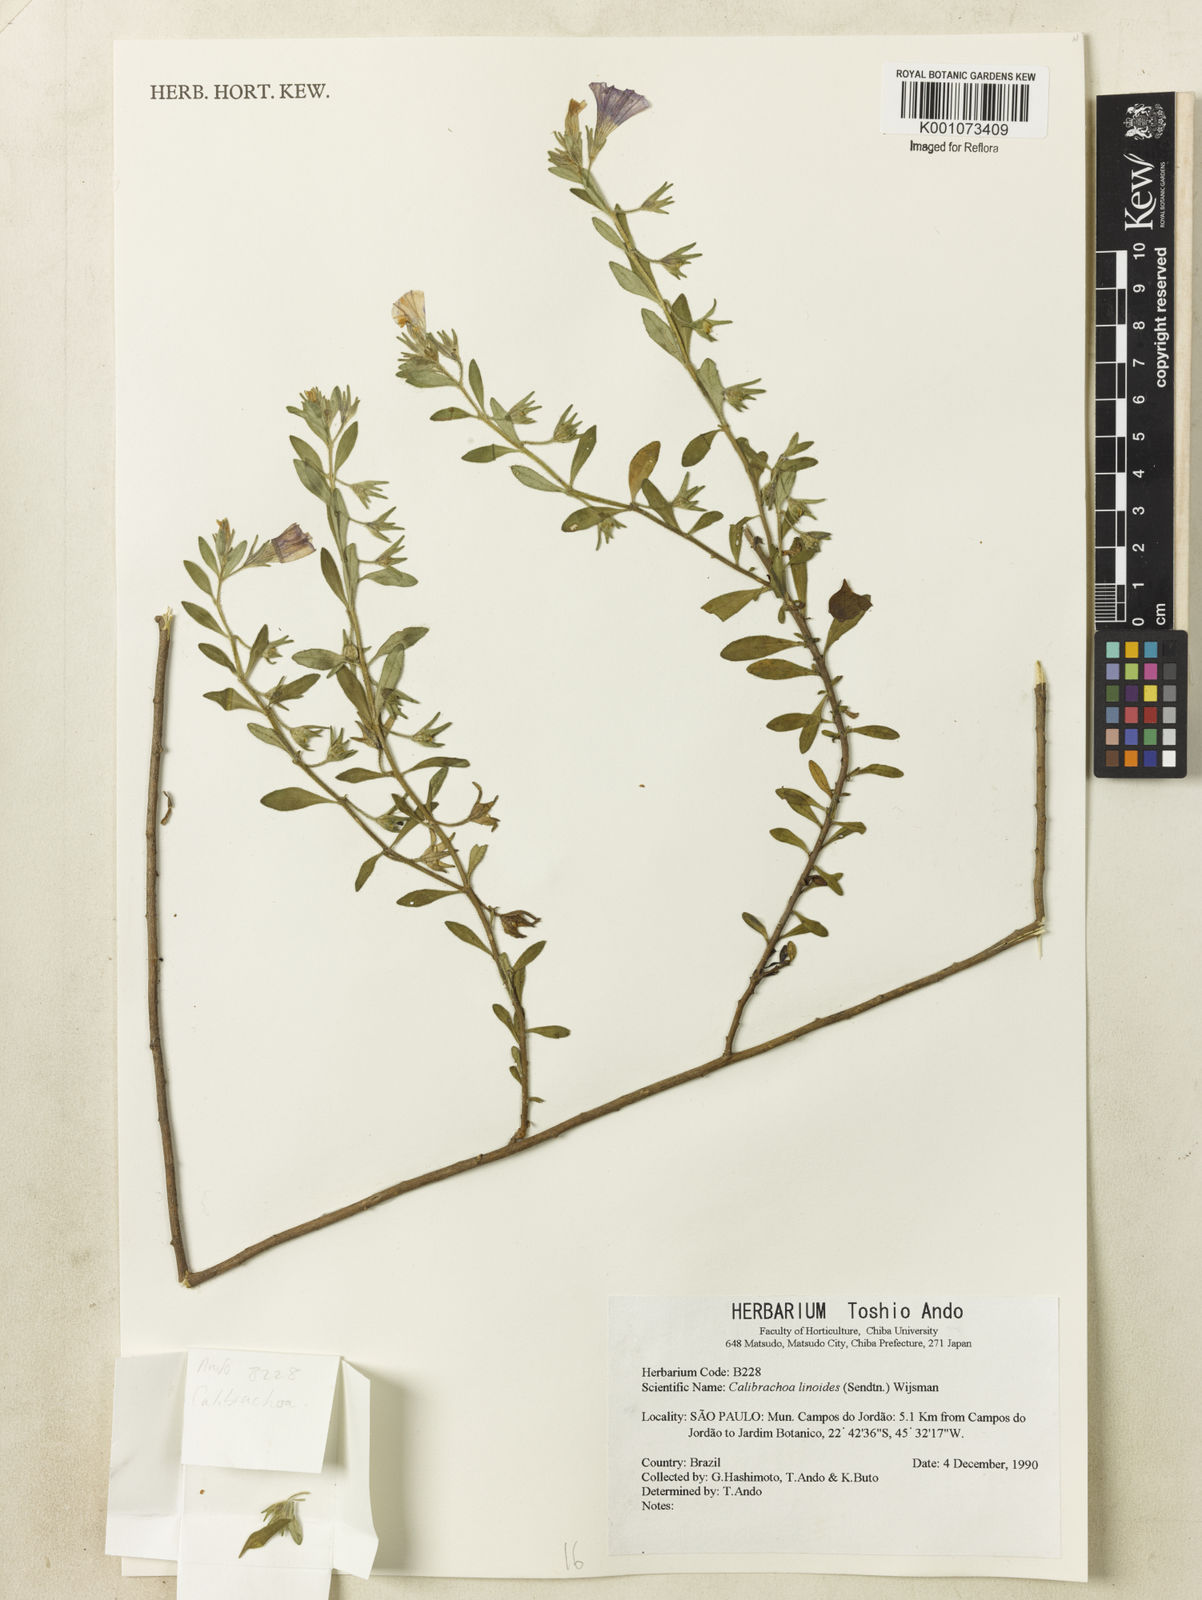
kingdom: Plantae
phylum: Tracheophyta
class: Magnoliopsida
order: Solanales
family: Solanaceae
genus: Calibrachoa
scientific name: Calibrachoa linoides
